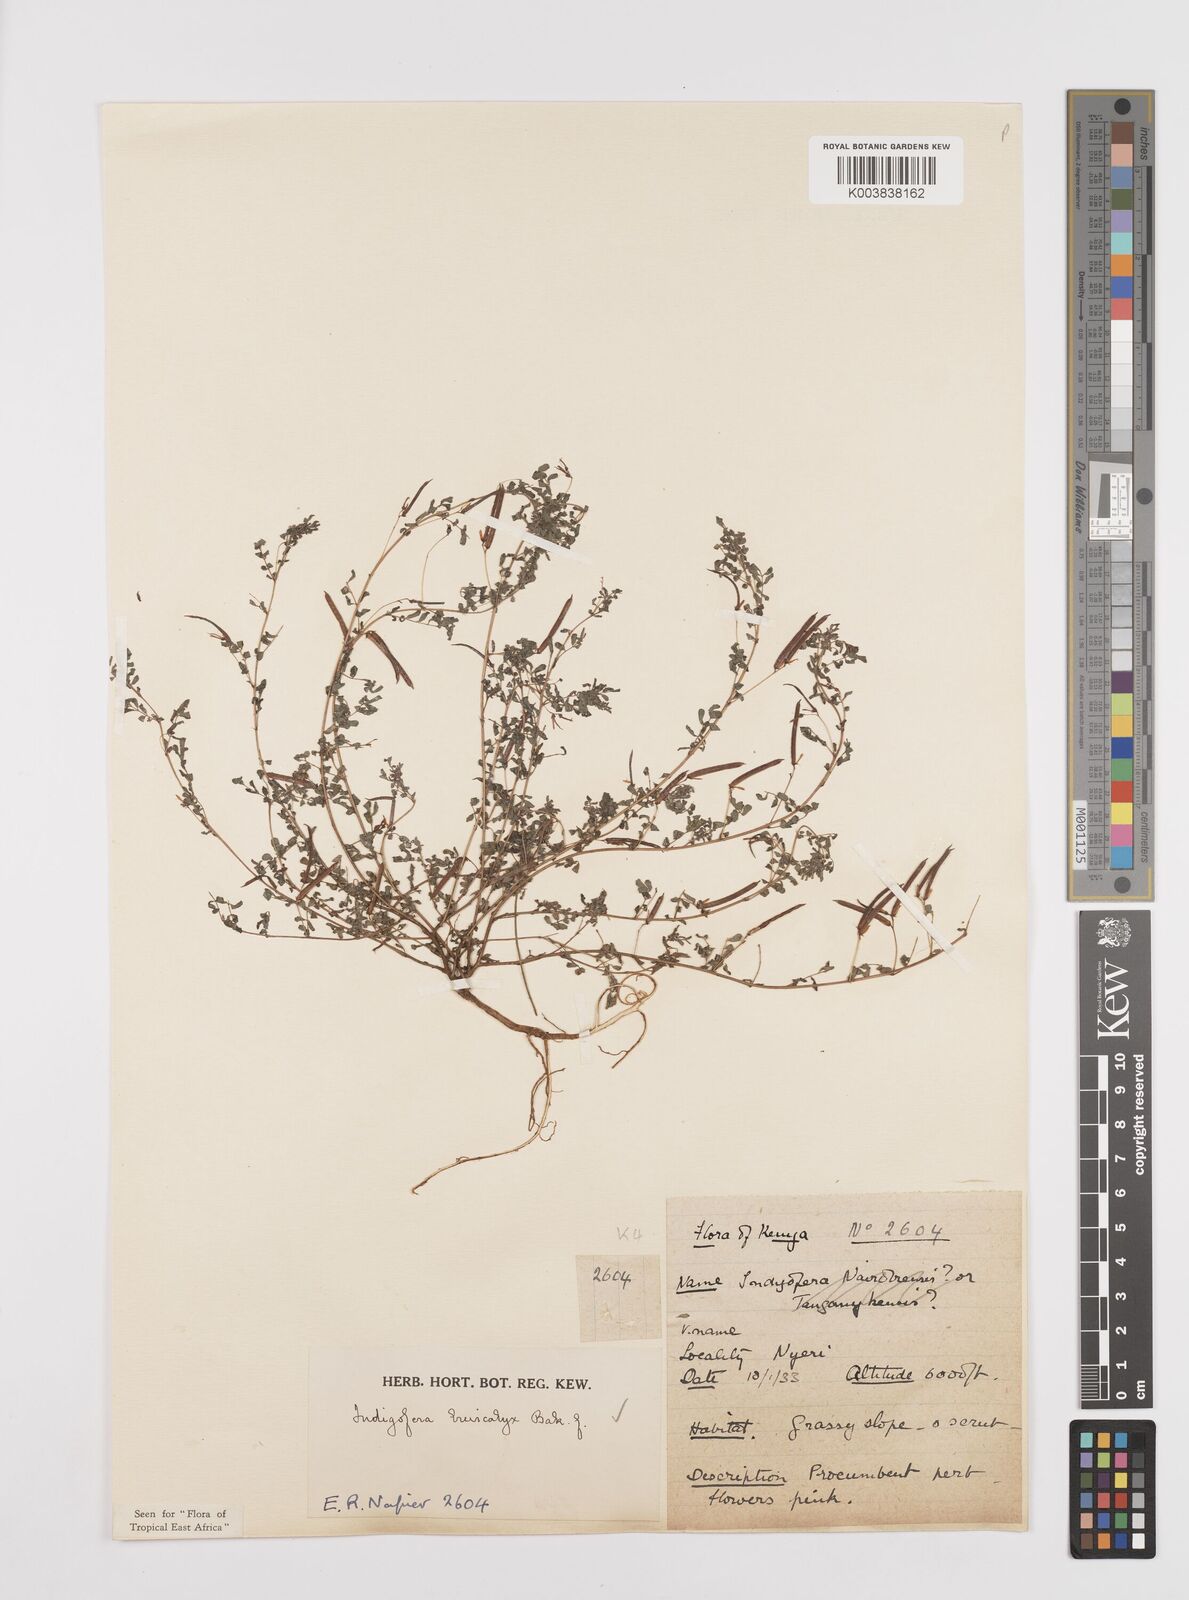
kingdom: Plantae
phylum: Tracheophyta
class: Magnoliopsida
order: Fabales
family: Fabaceae
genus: Indigofera
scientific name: Indigofera brevicalyx
